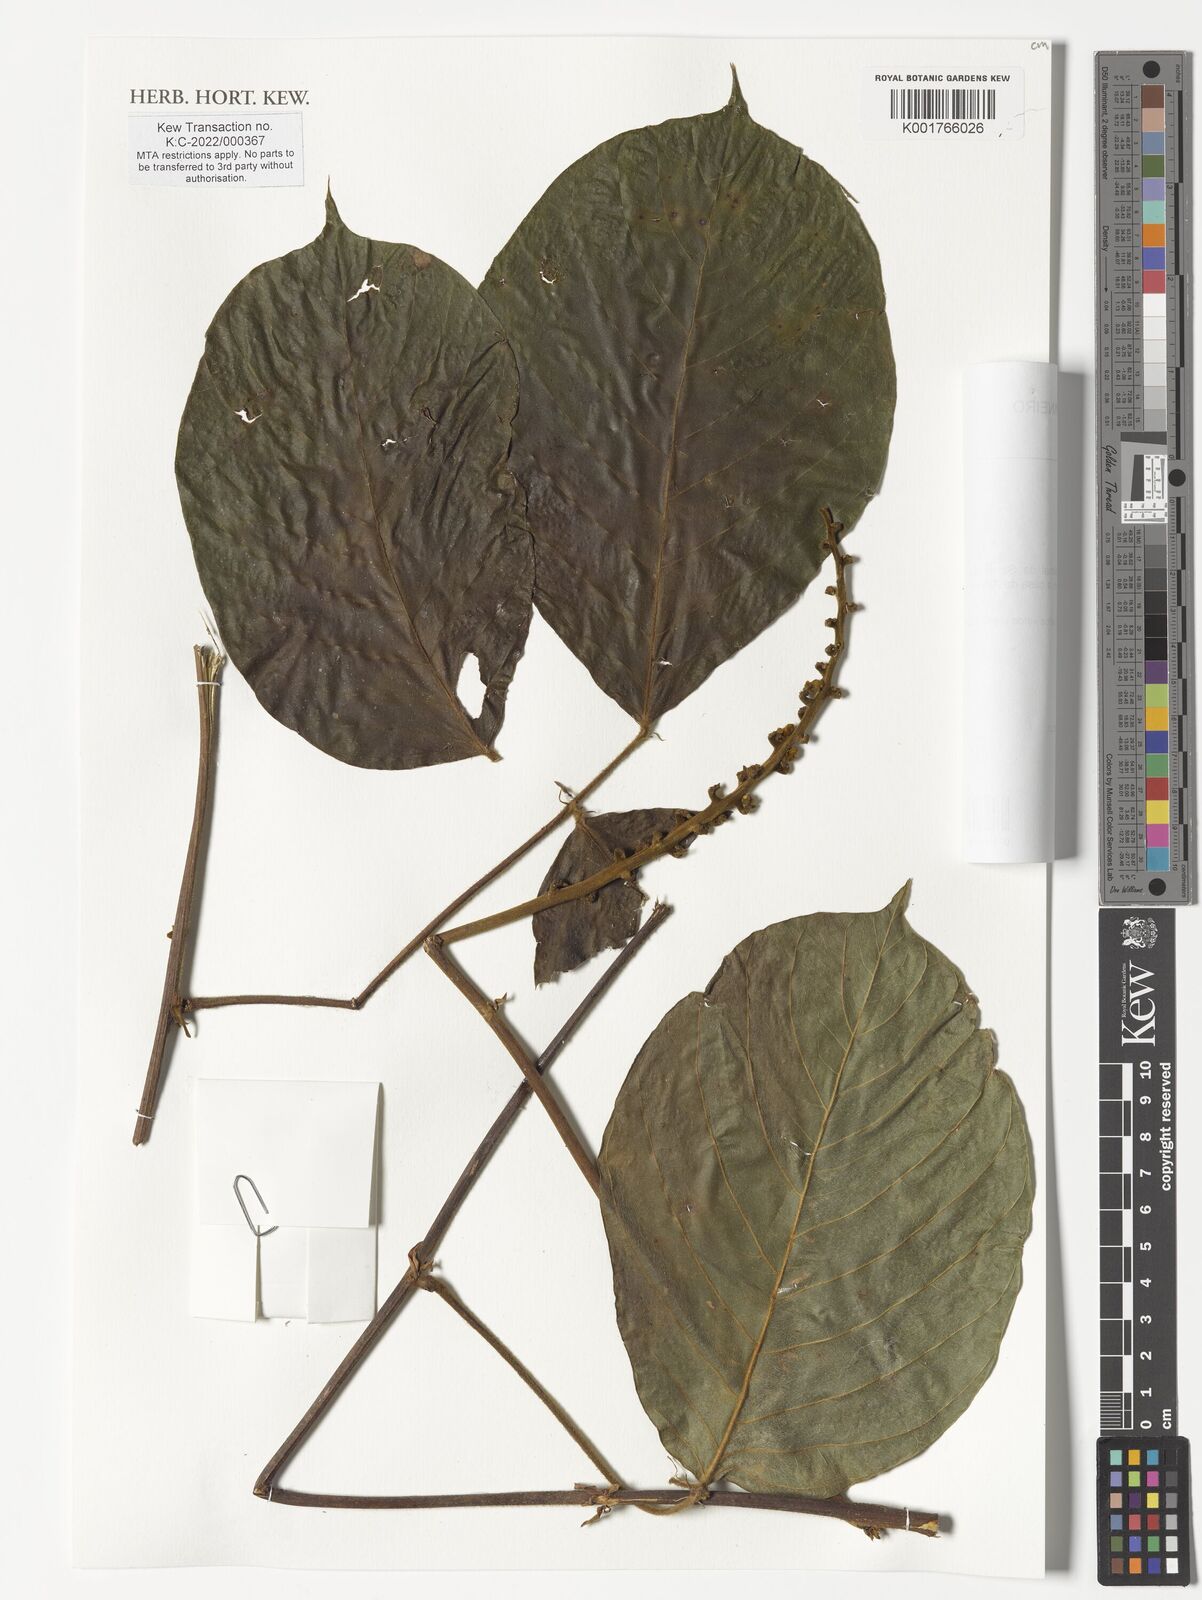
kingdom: Plantae
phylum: Tracheophyta
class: Magnoliopsida
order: Fabales
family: Fabaceae
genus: Macropsychanthus
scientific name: Macropsychanthus
